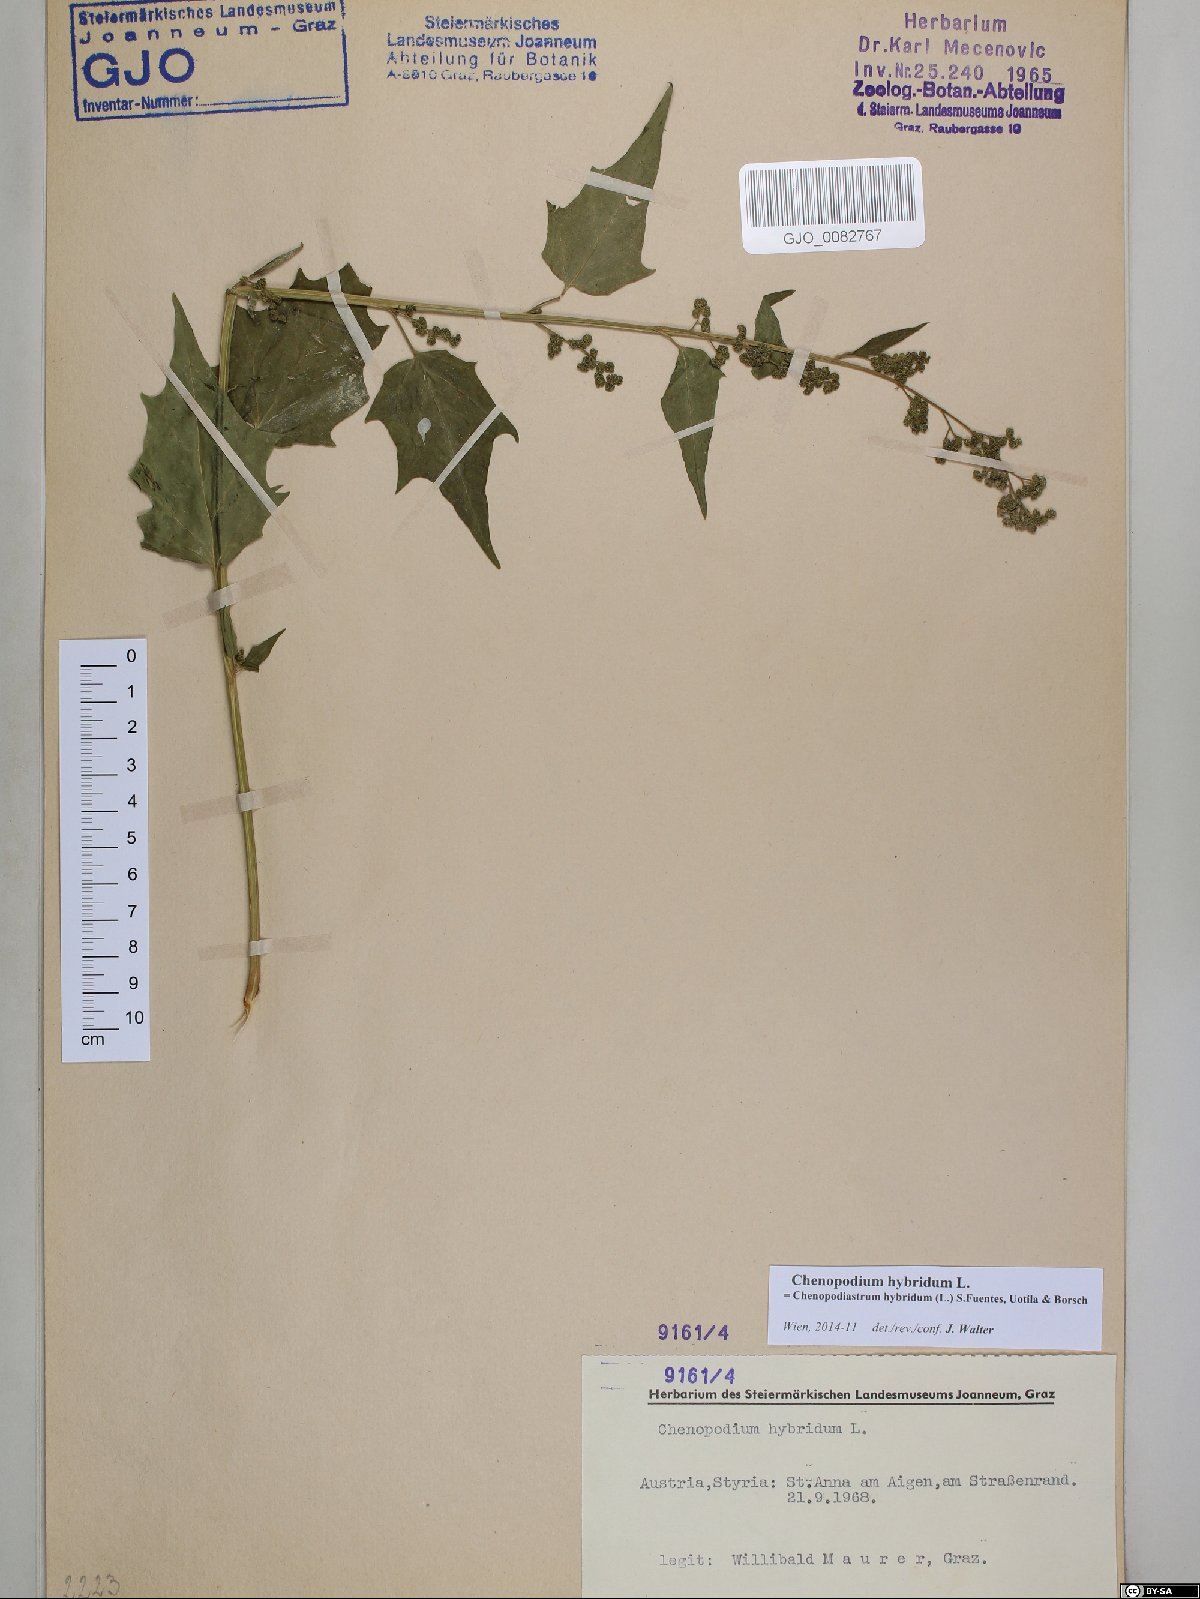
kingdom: Plantae
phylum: Tracheophyta
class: Magnoliopsida
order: Caryophyllales
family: Amaranthaceae
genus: Chenopodiastrum
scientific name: Chenopodiastrum hybridum
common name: Mapleleaf goosefoot
